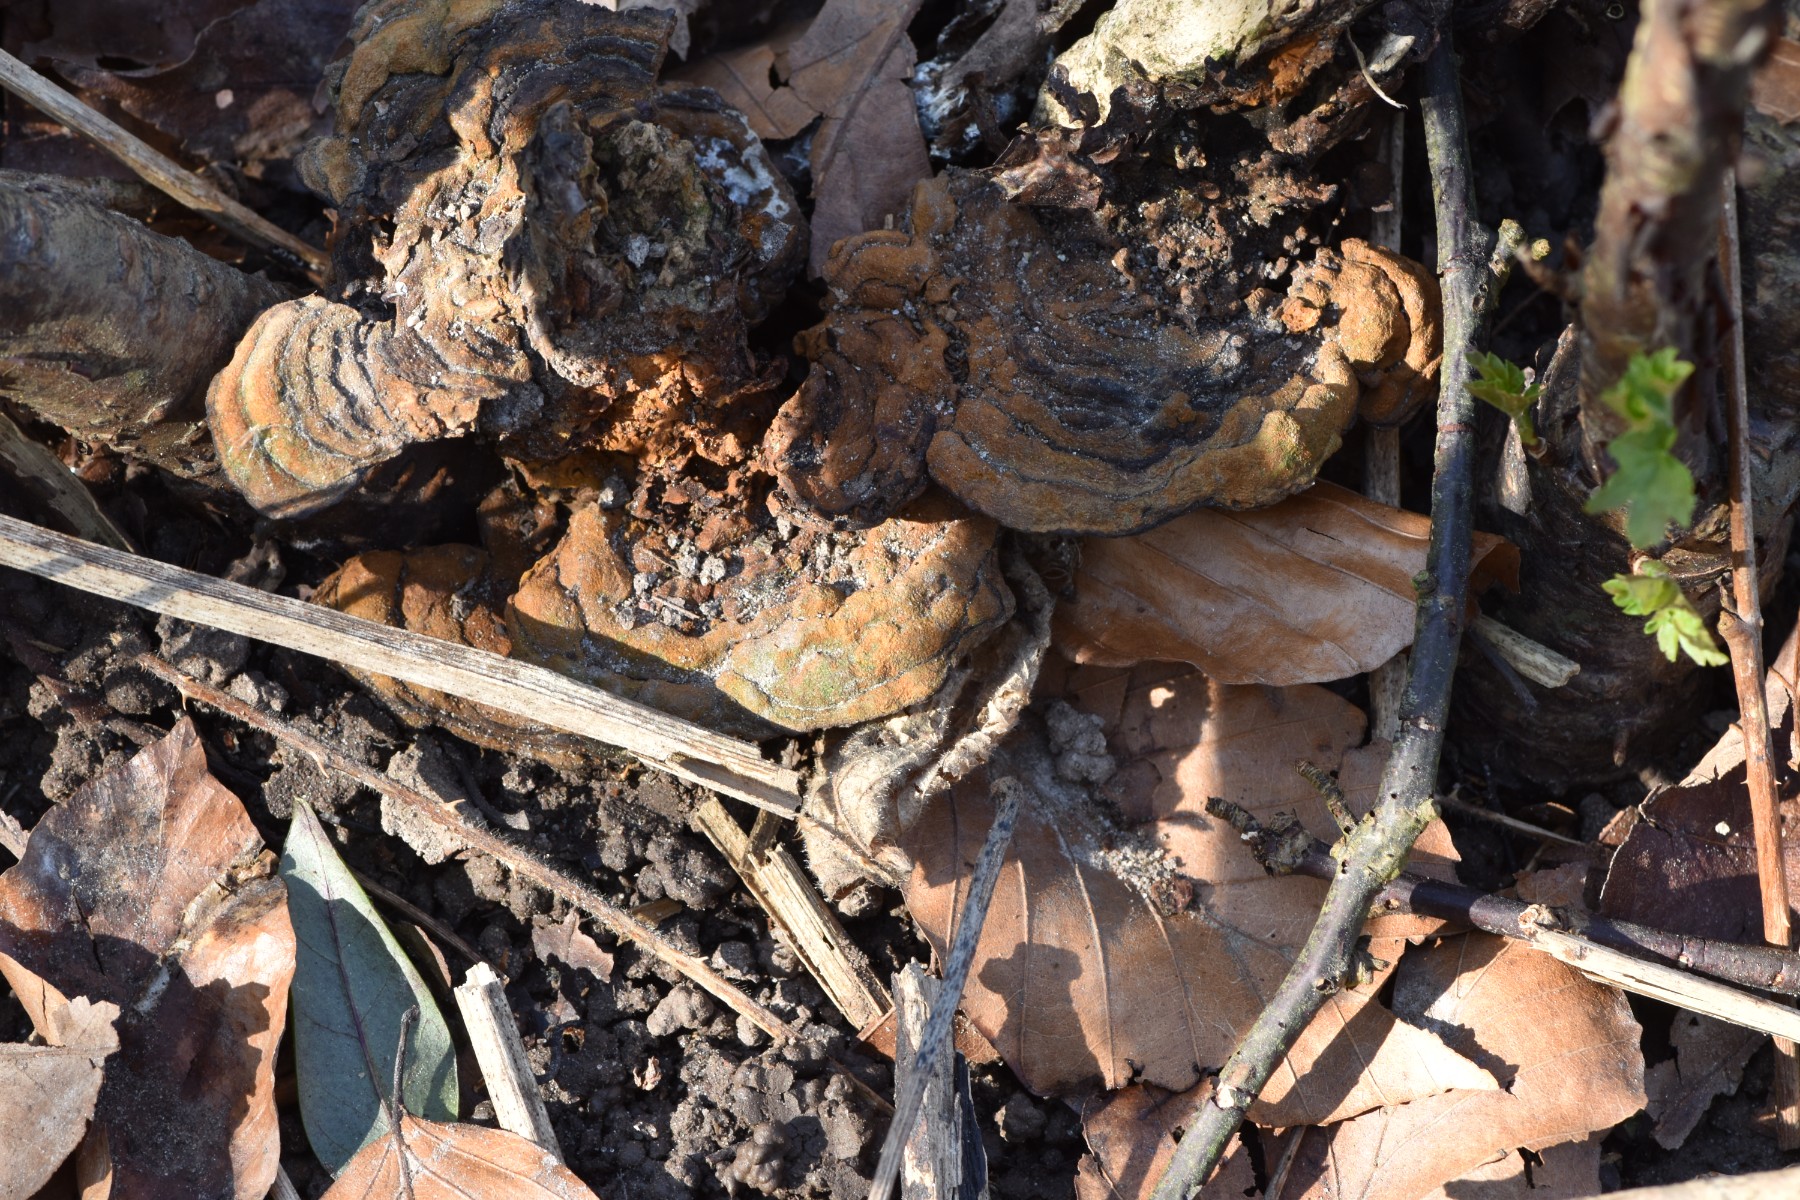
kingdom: Fungi
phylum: Basidiomycota
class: Agaricomycetes
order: Hymenochaetales
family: Hymenochaetaceae
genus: Phylloporia
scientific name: Phylloporia ribis
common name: ribs-ildporesvamp
